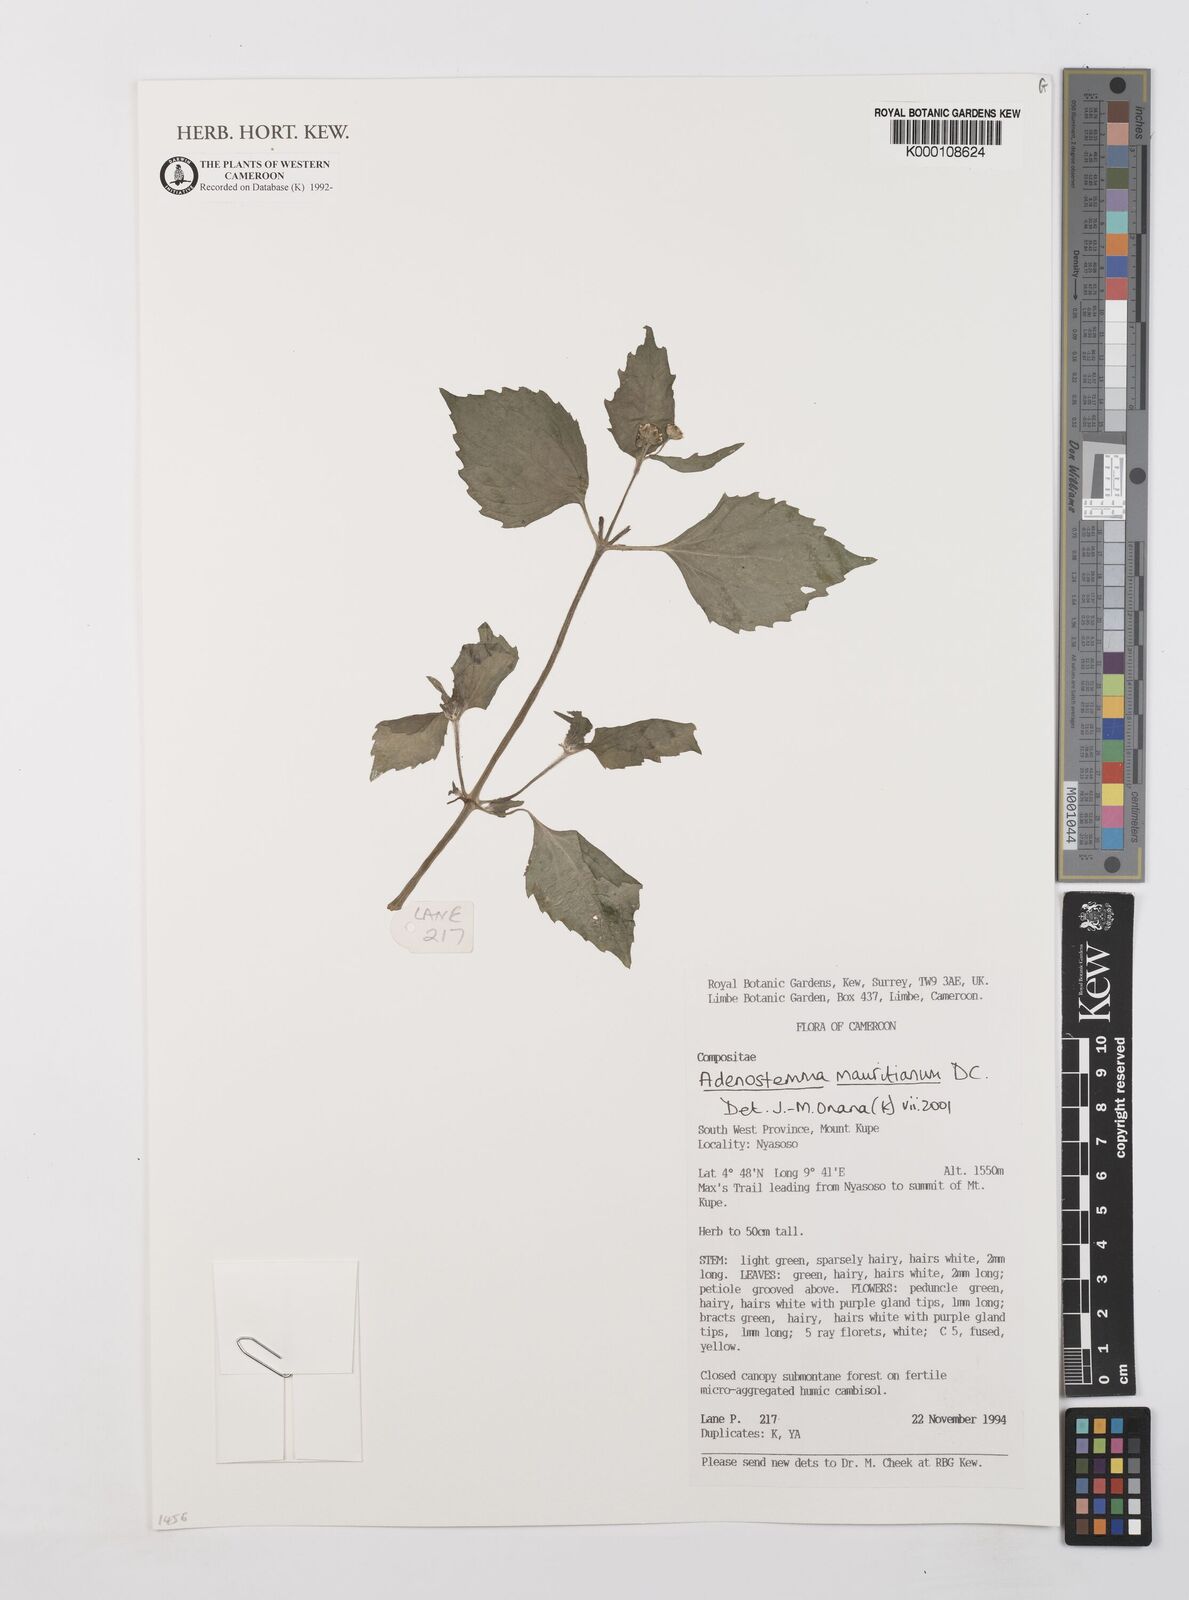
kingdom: Plantae
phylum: Tracheophyta
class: Magnoliopsida
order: Asterales
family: Asteraceae
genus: Adenostemma
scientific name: Adenostemma mauritianum
